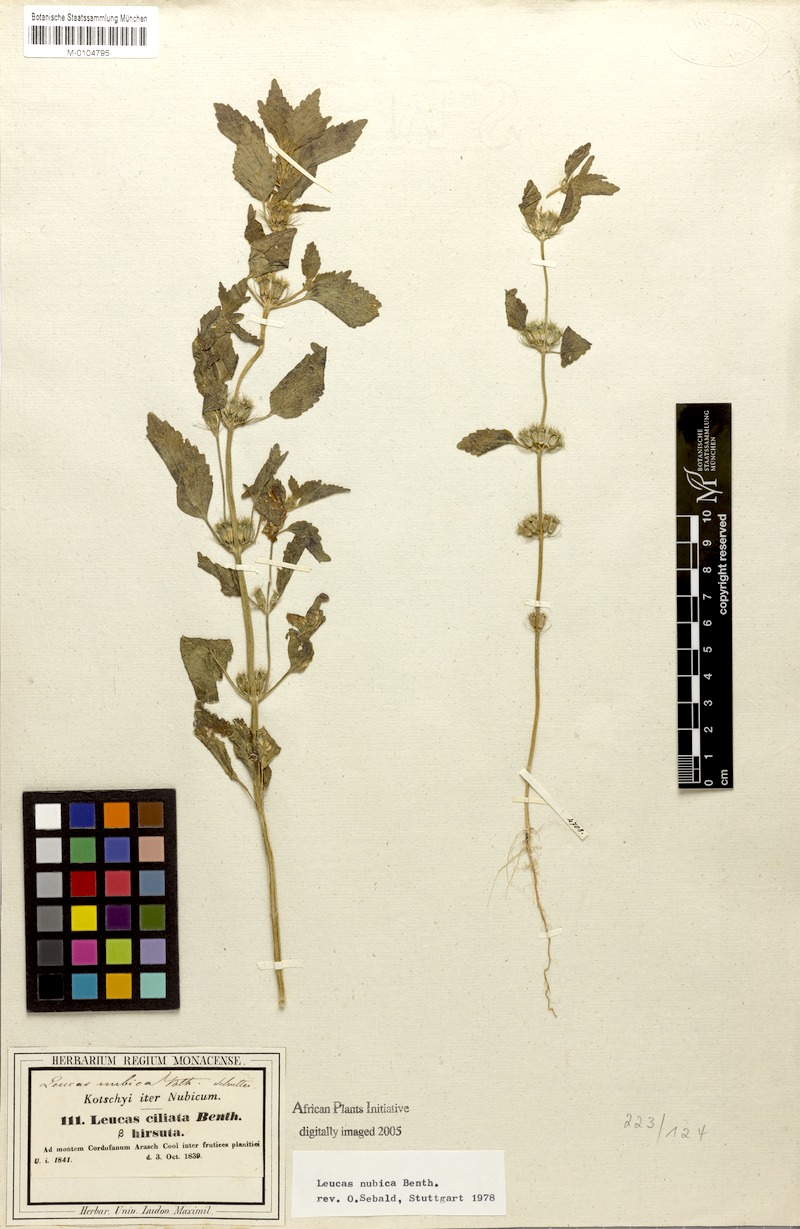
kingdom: Plantae
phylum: Tracheophyta
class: Magnoliopsida
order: Lamiales
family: Lamiaceae
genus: Leucas
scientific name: Leucas nubica
